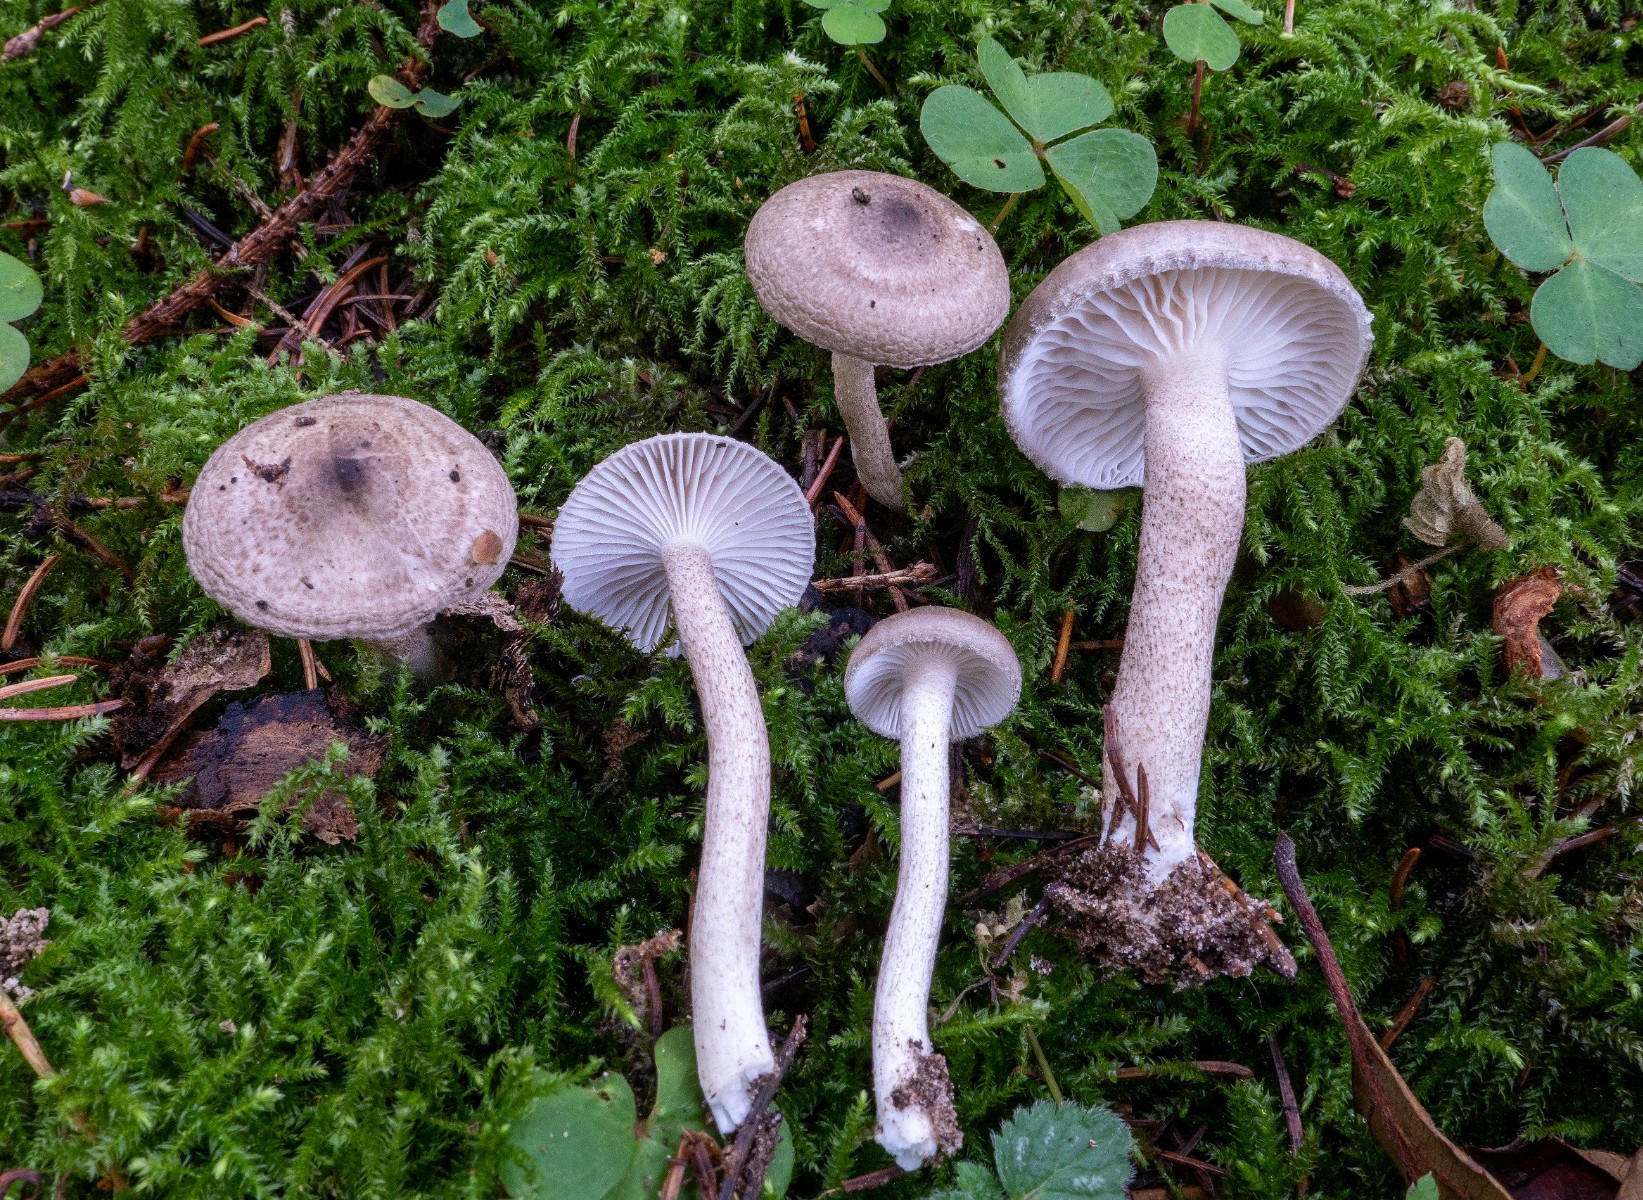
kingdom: Fungi
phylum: Basidiomycota
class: Agaricomycetes
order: Agaricales
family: Hygrophoraceae
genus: Hygrophorus
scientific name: Hygrophorus pustulatus
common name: mørkprikket sneglehat
